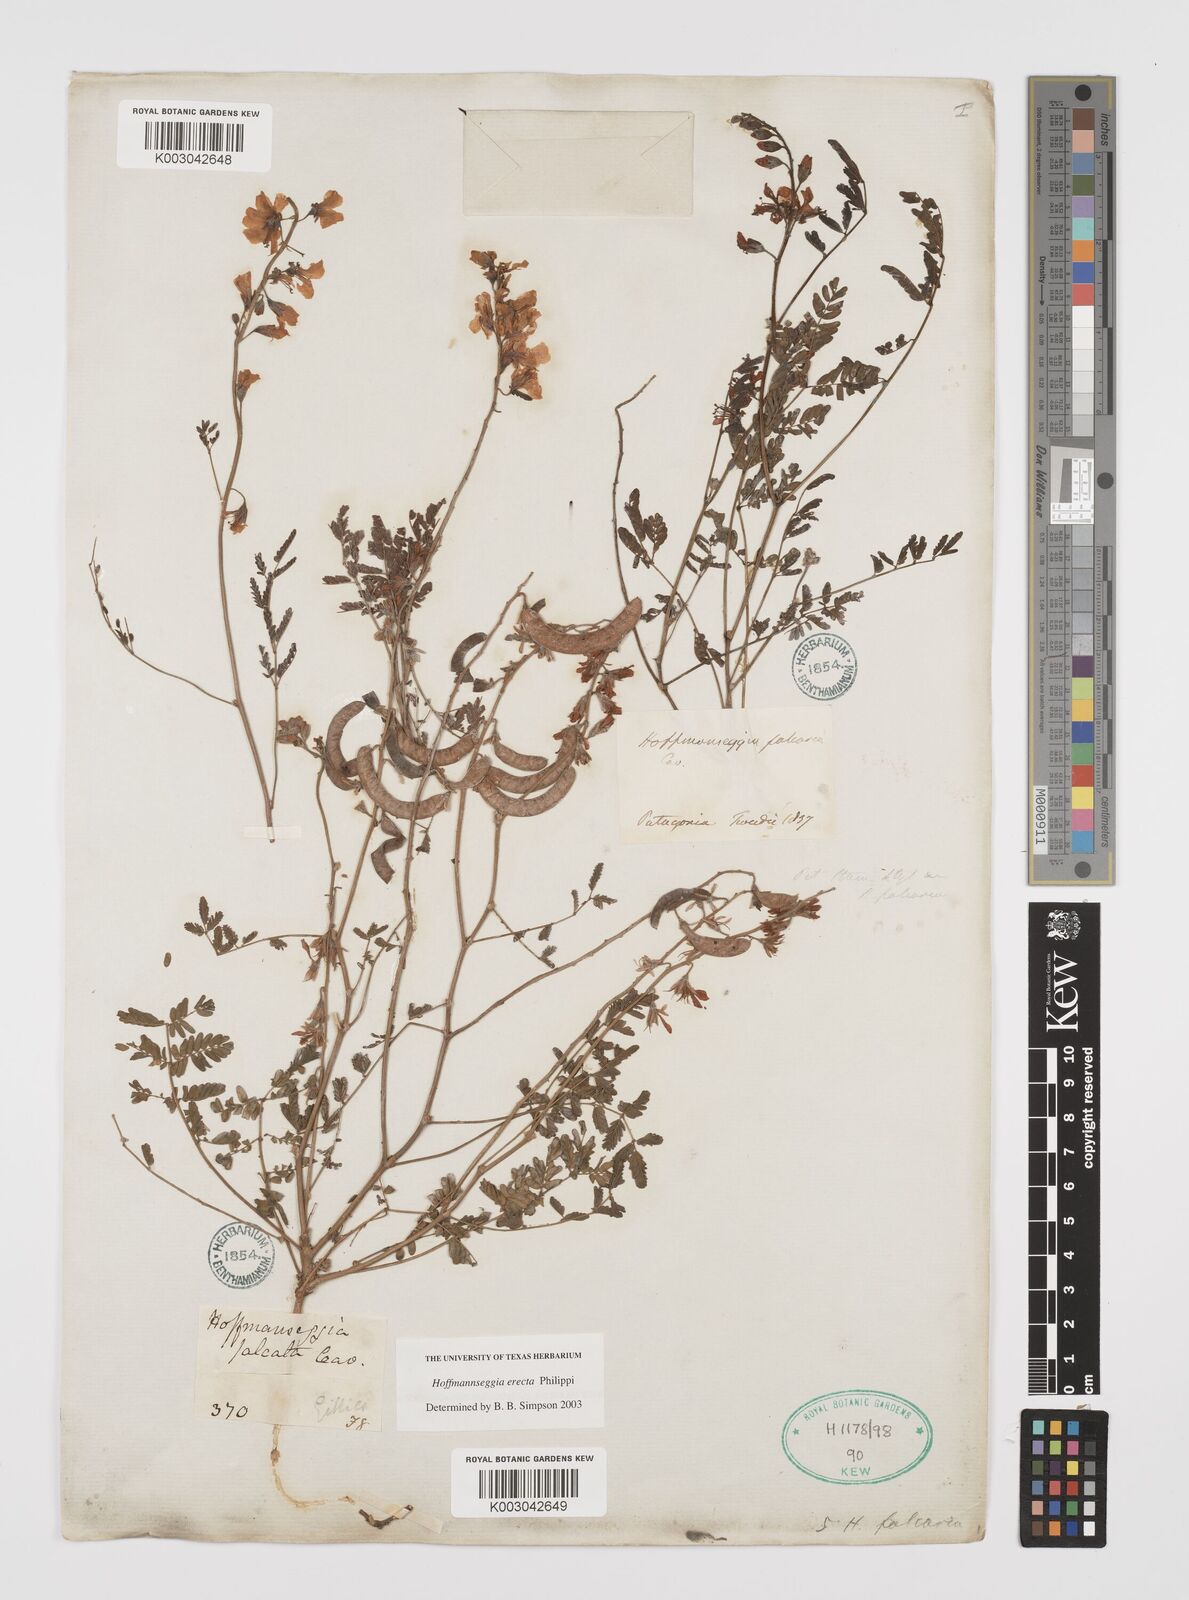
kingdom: Plantae
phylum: Tracheophyta
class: Magnoliopsida
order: Fabales
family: Fabaceae
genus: Hoffmannseggia
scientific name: Hoffmannseggia erecta
